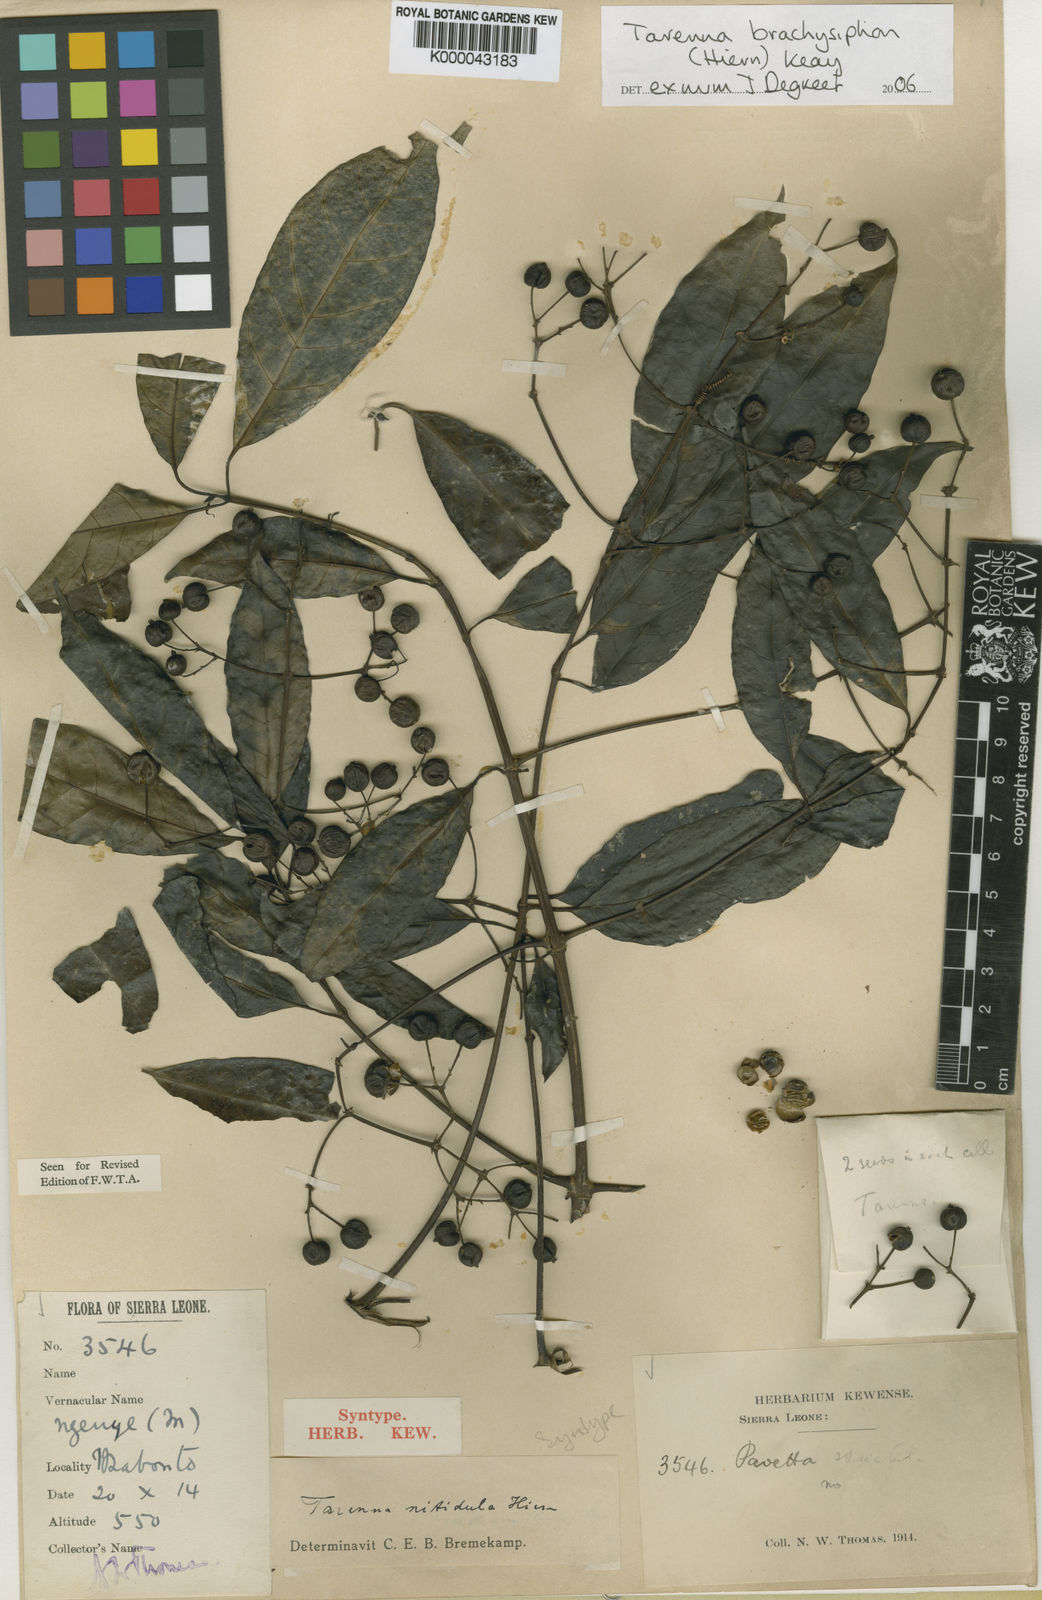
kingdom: Plantae
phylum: Tracheophyta
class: Magnoliopsida
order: Gentianales
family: Rubiaceae
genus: Tarenna
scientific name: Tarenna brachysiphon
